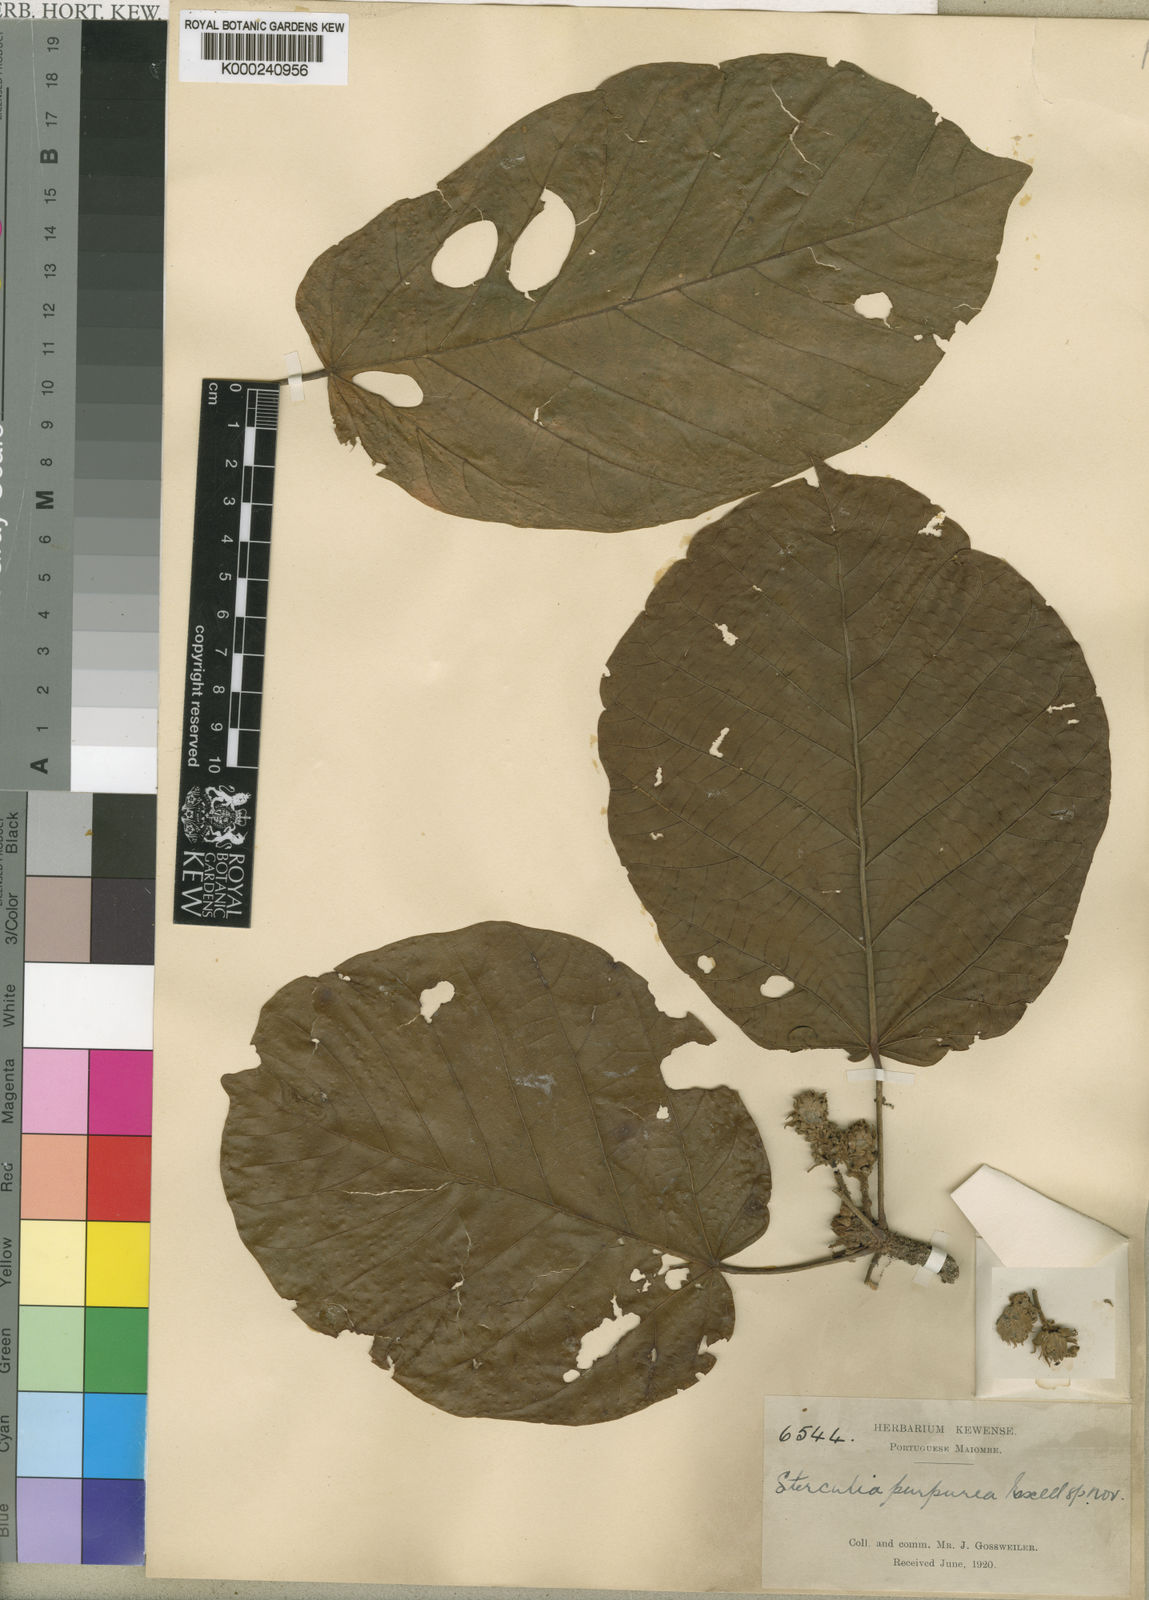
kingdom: Plantae
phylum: Tracheophyta
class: Magnoliopsida
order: Malvales
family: Malvaceae
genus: Sterculia
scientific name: Sterculia dawei
